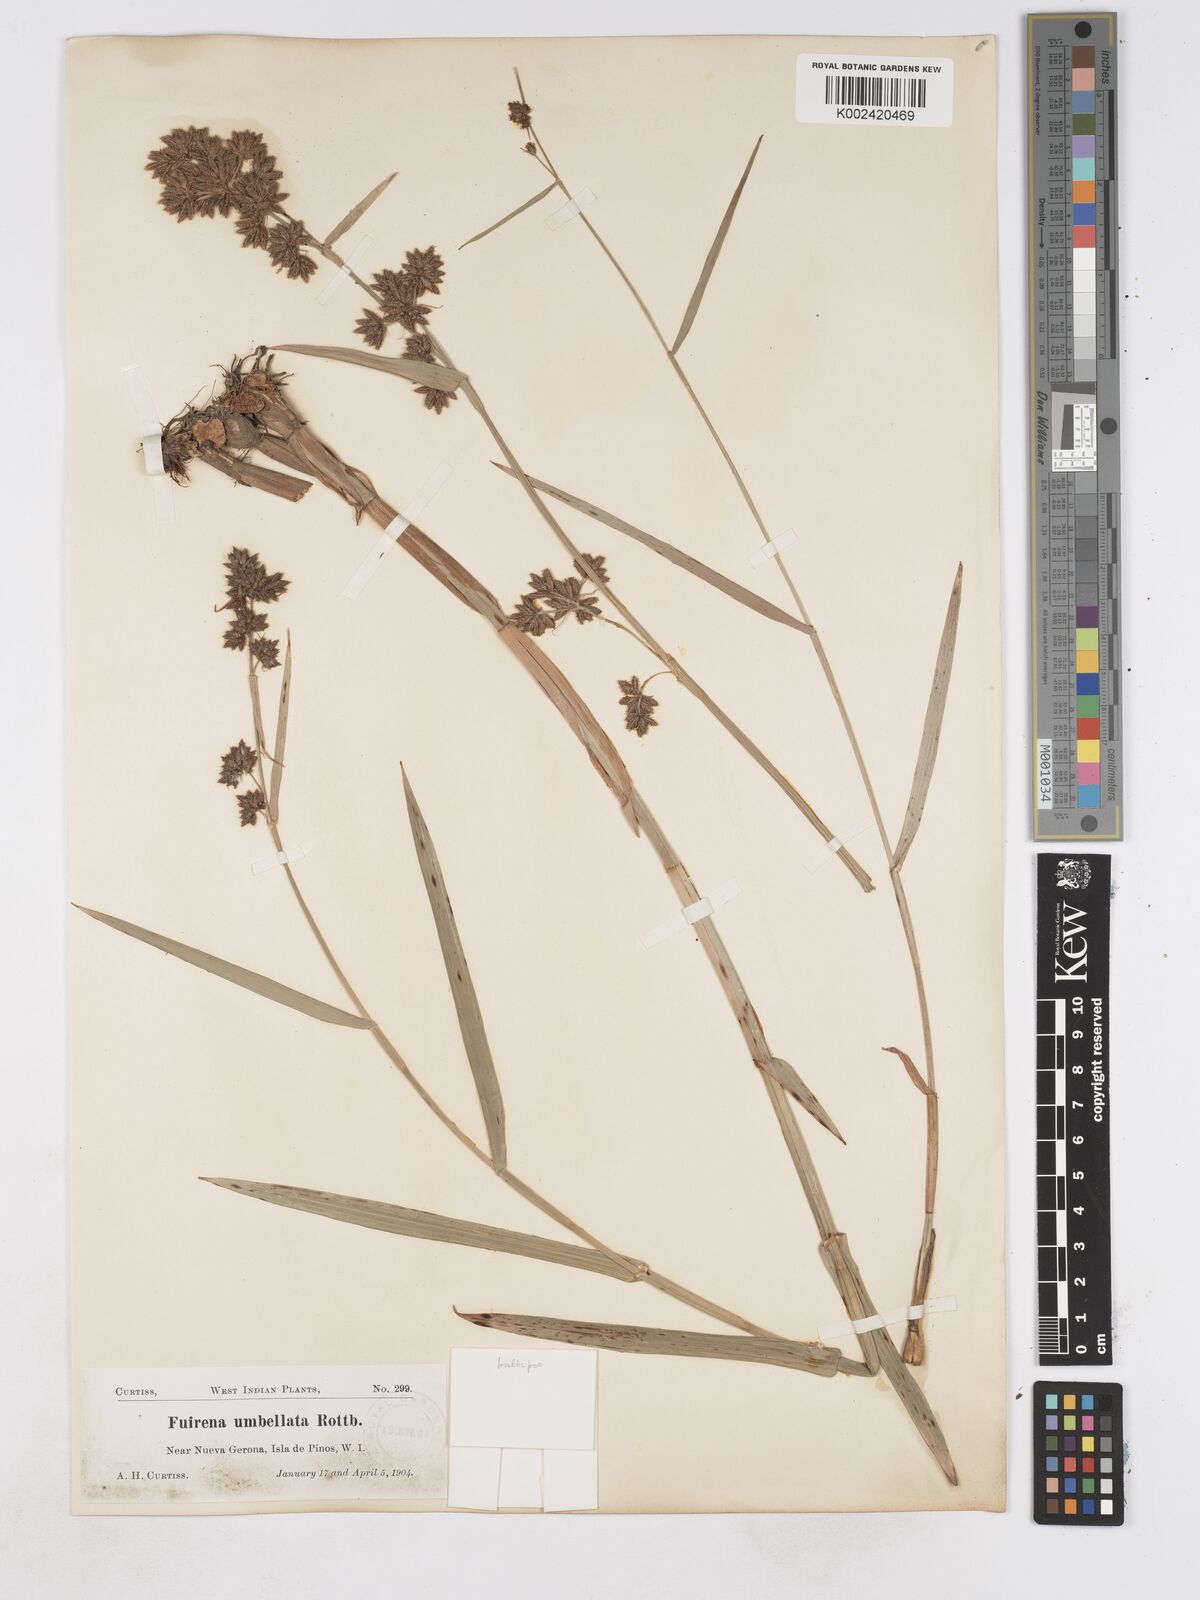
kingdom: Plantae
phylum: Tracheophyta
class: Liliopsida
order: Poales
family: Cyperaceae
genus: Fuirena
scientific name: Fuirena umbellata
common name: Yefen
